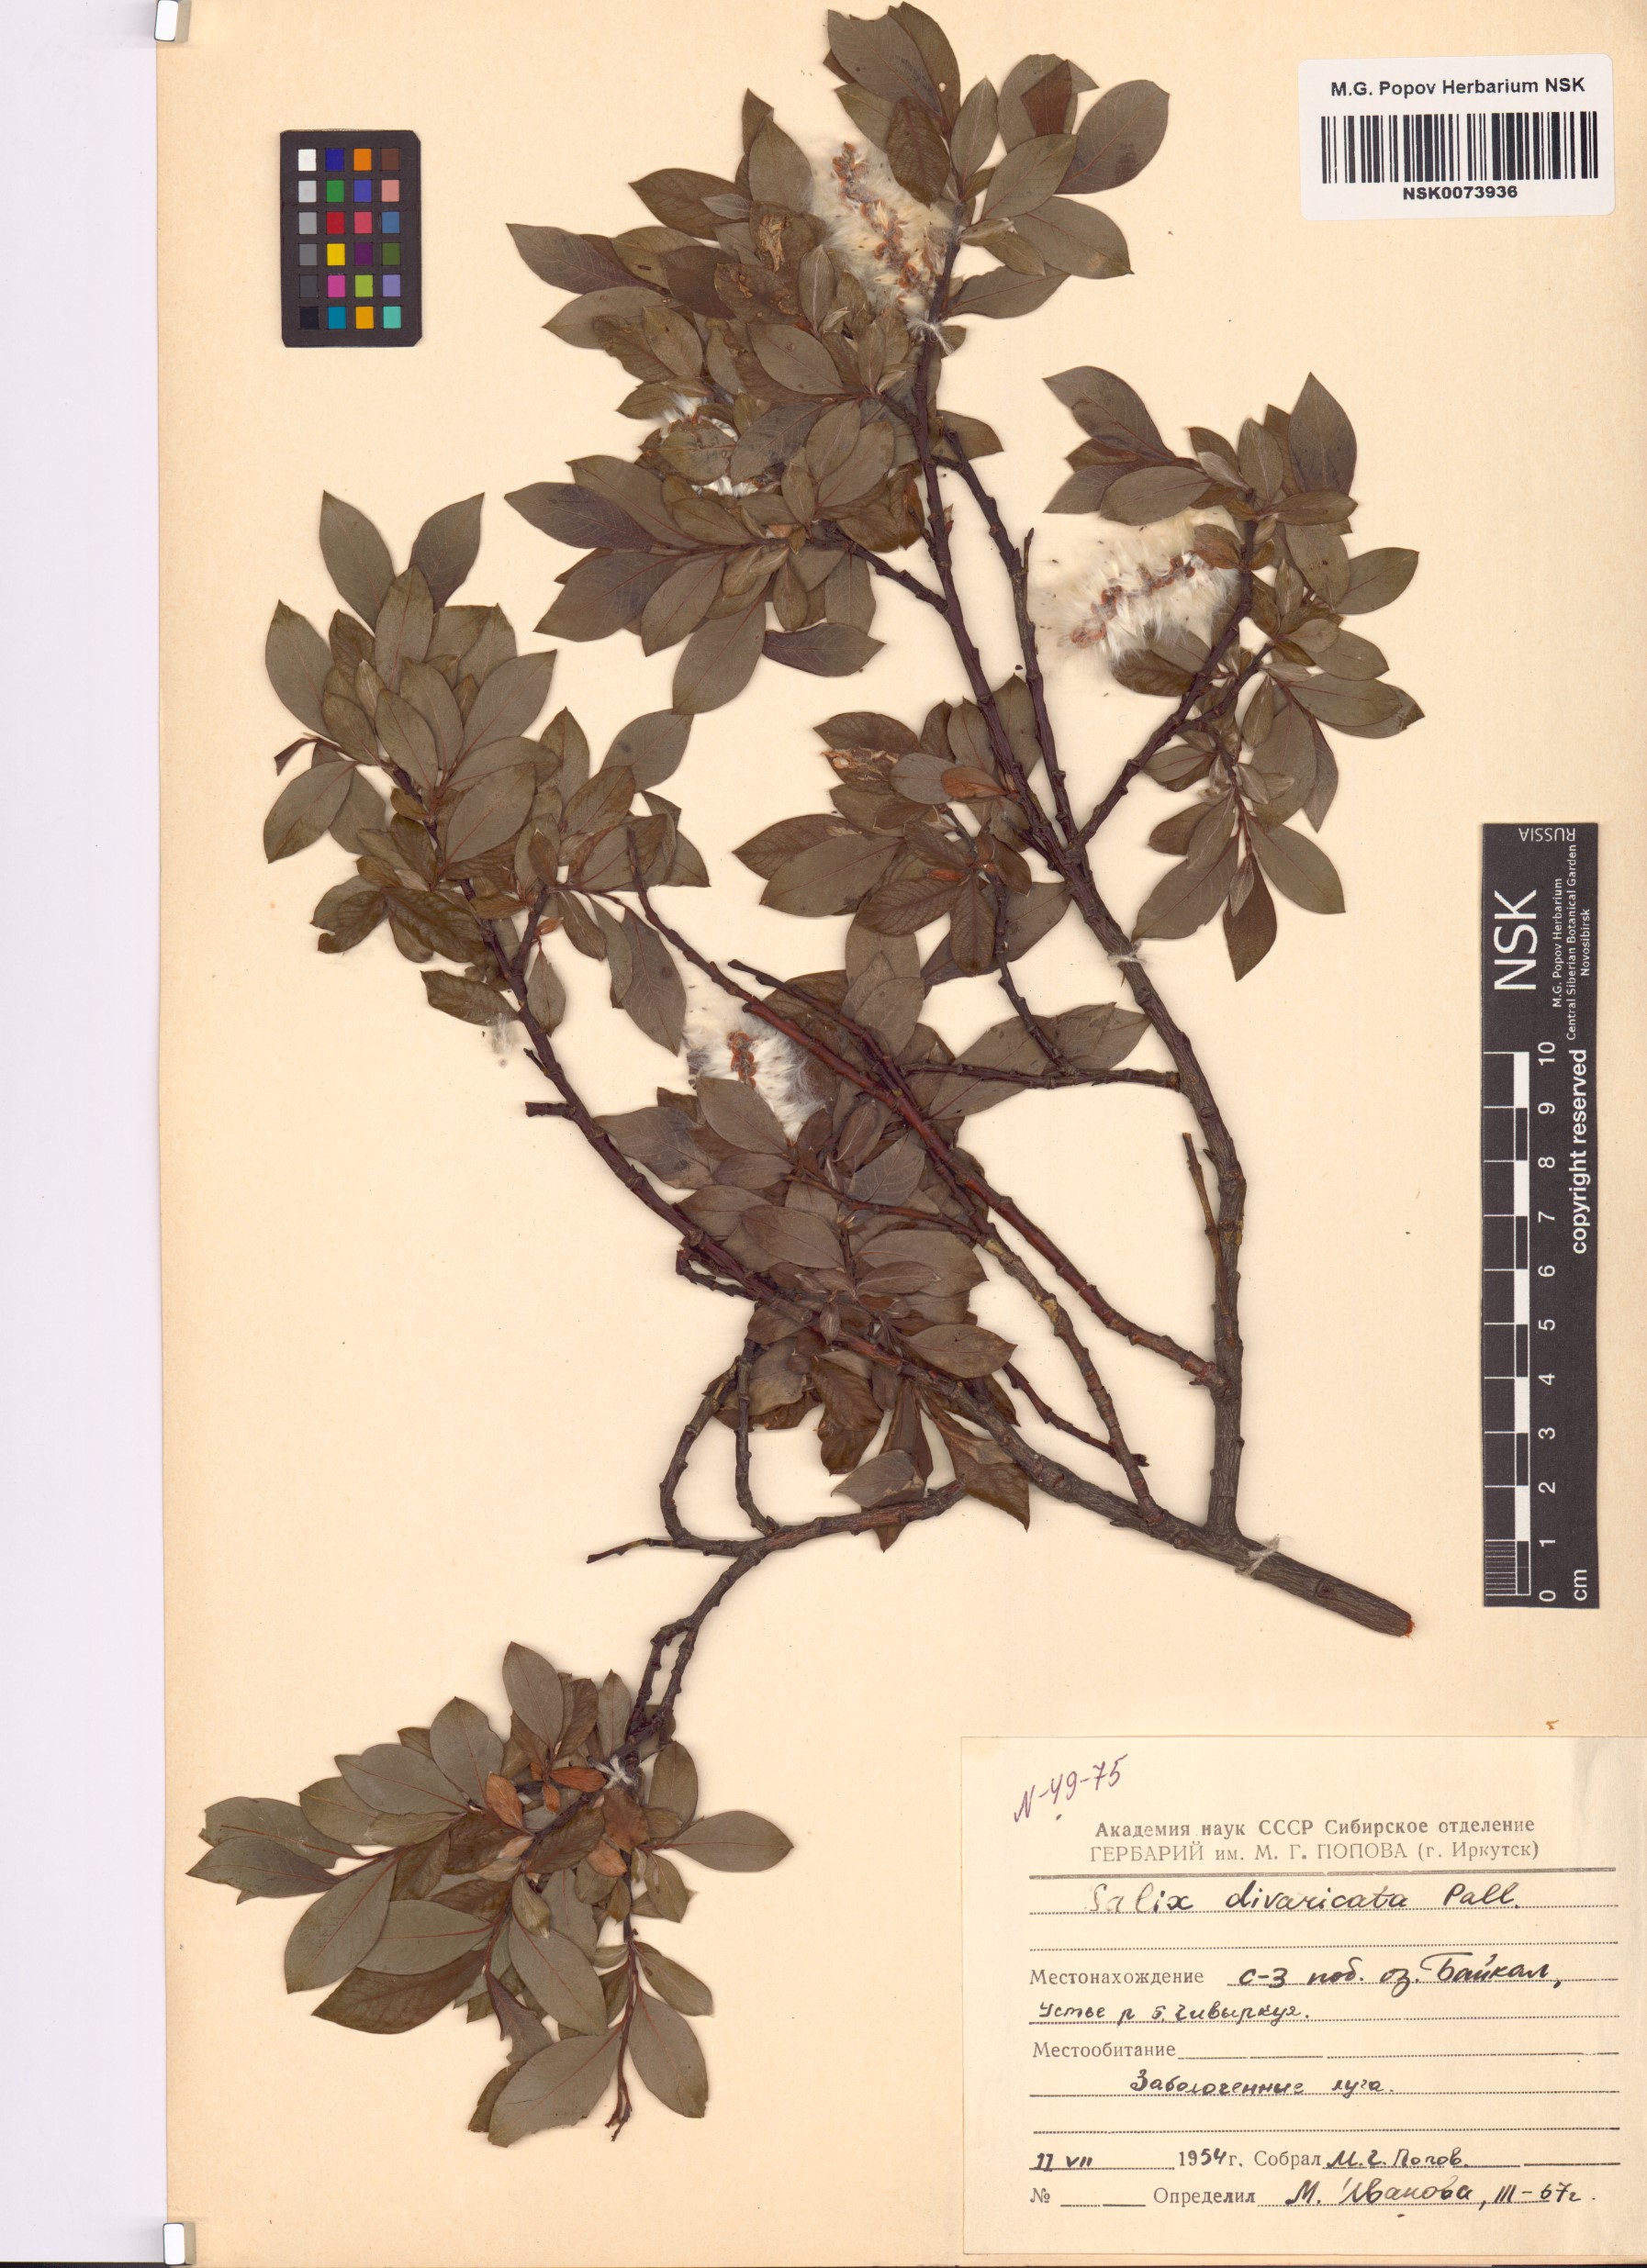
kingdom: Plantae
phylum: Tracheophyta
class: Magnoliopsida
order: Malpighiales
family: Salicaceae
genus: Salix
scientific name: Salix divaricata
